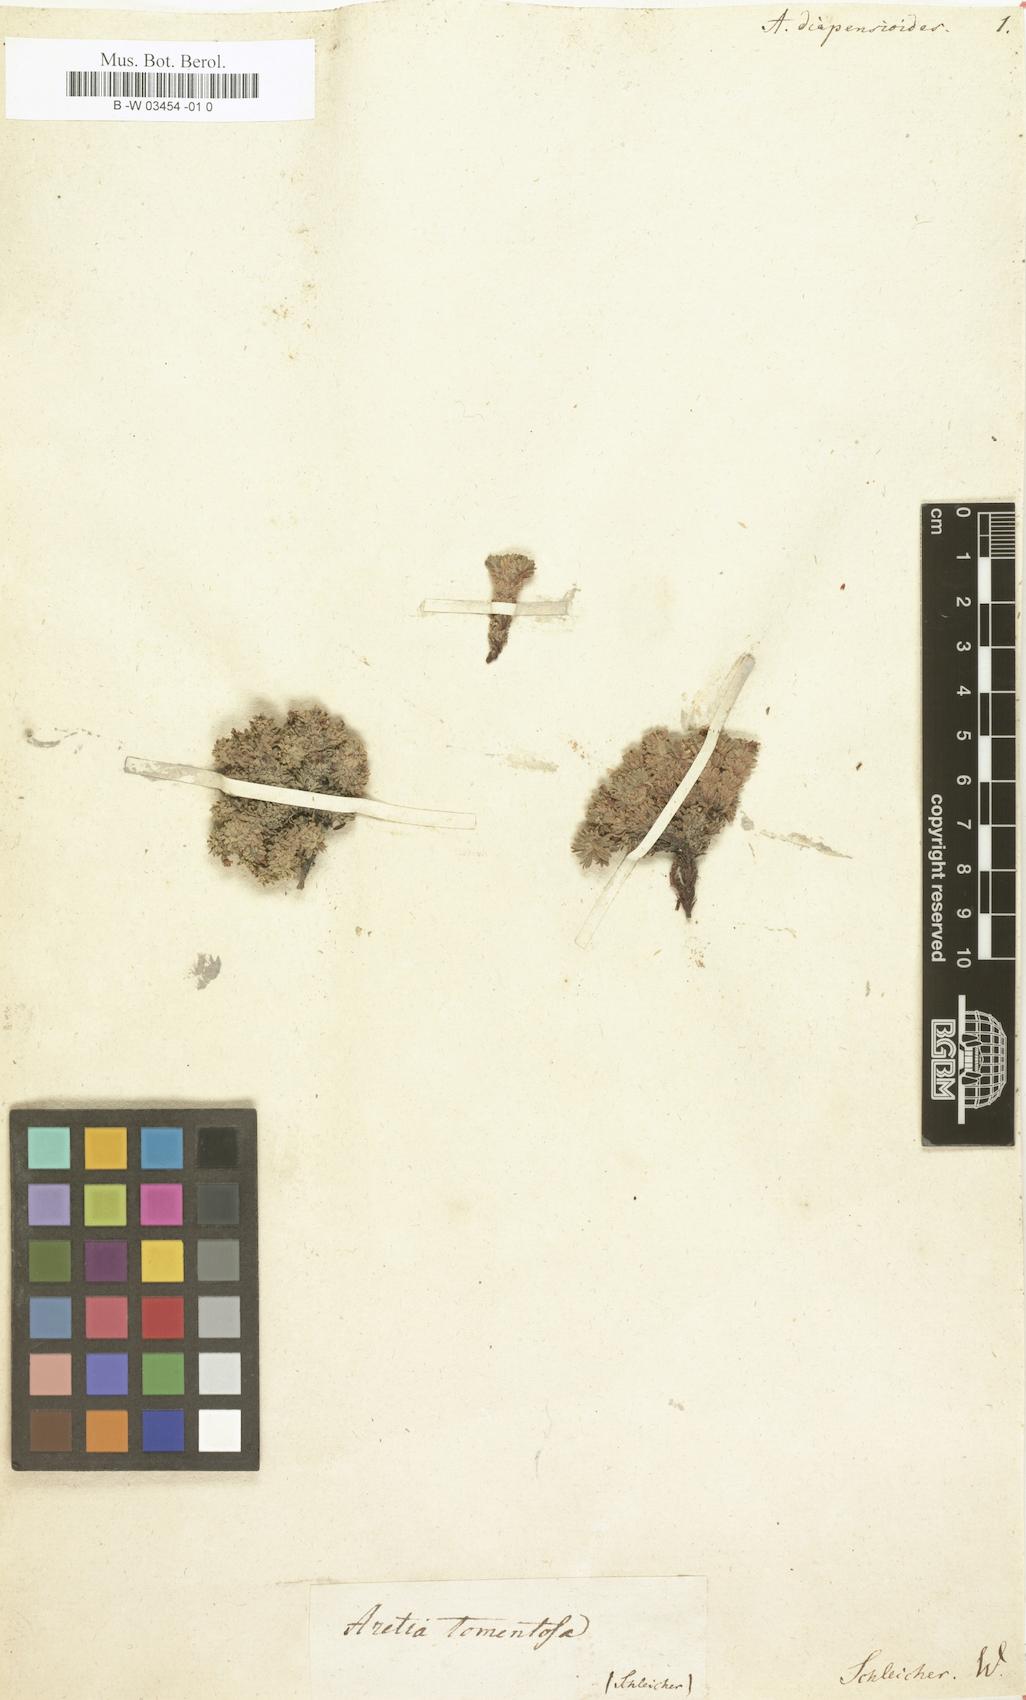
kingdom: Plantae
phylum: Tracheophyta
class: Magnoliopsida
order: Ericales
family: Primulaceae
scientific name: Primulaceae
